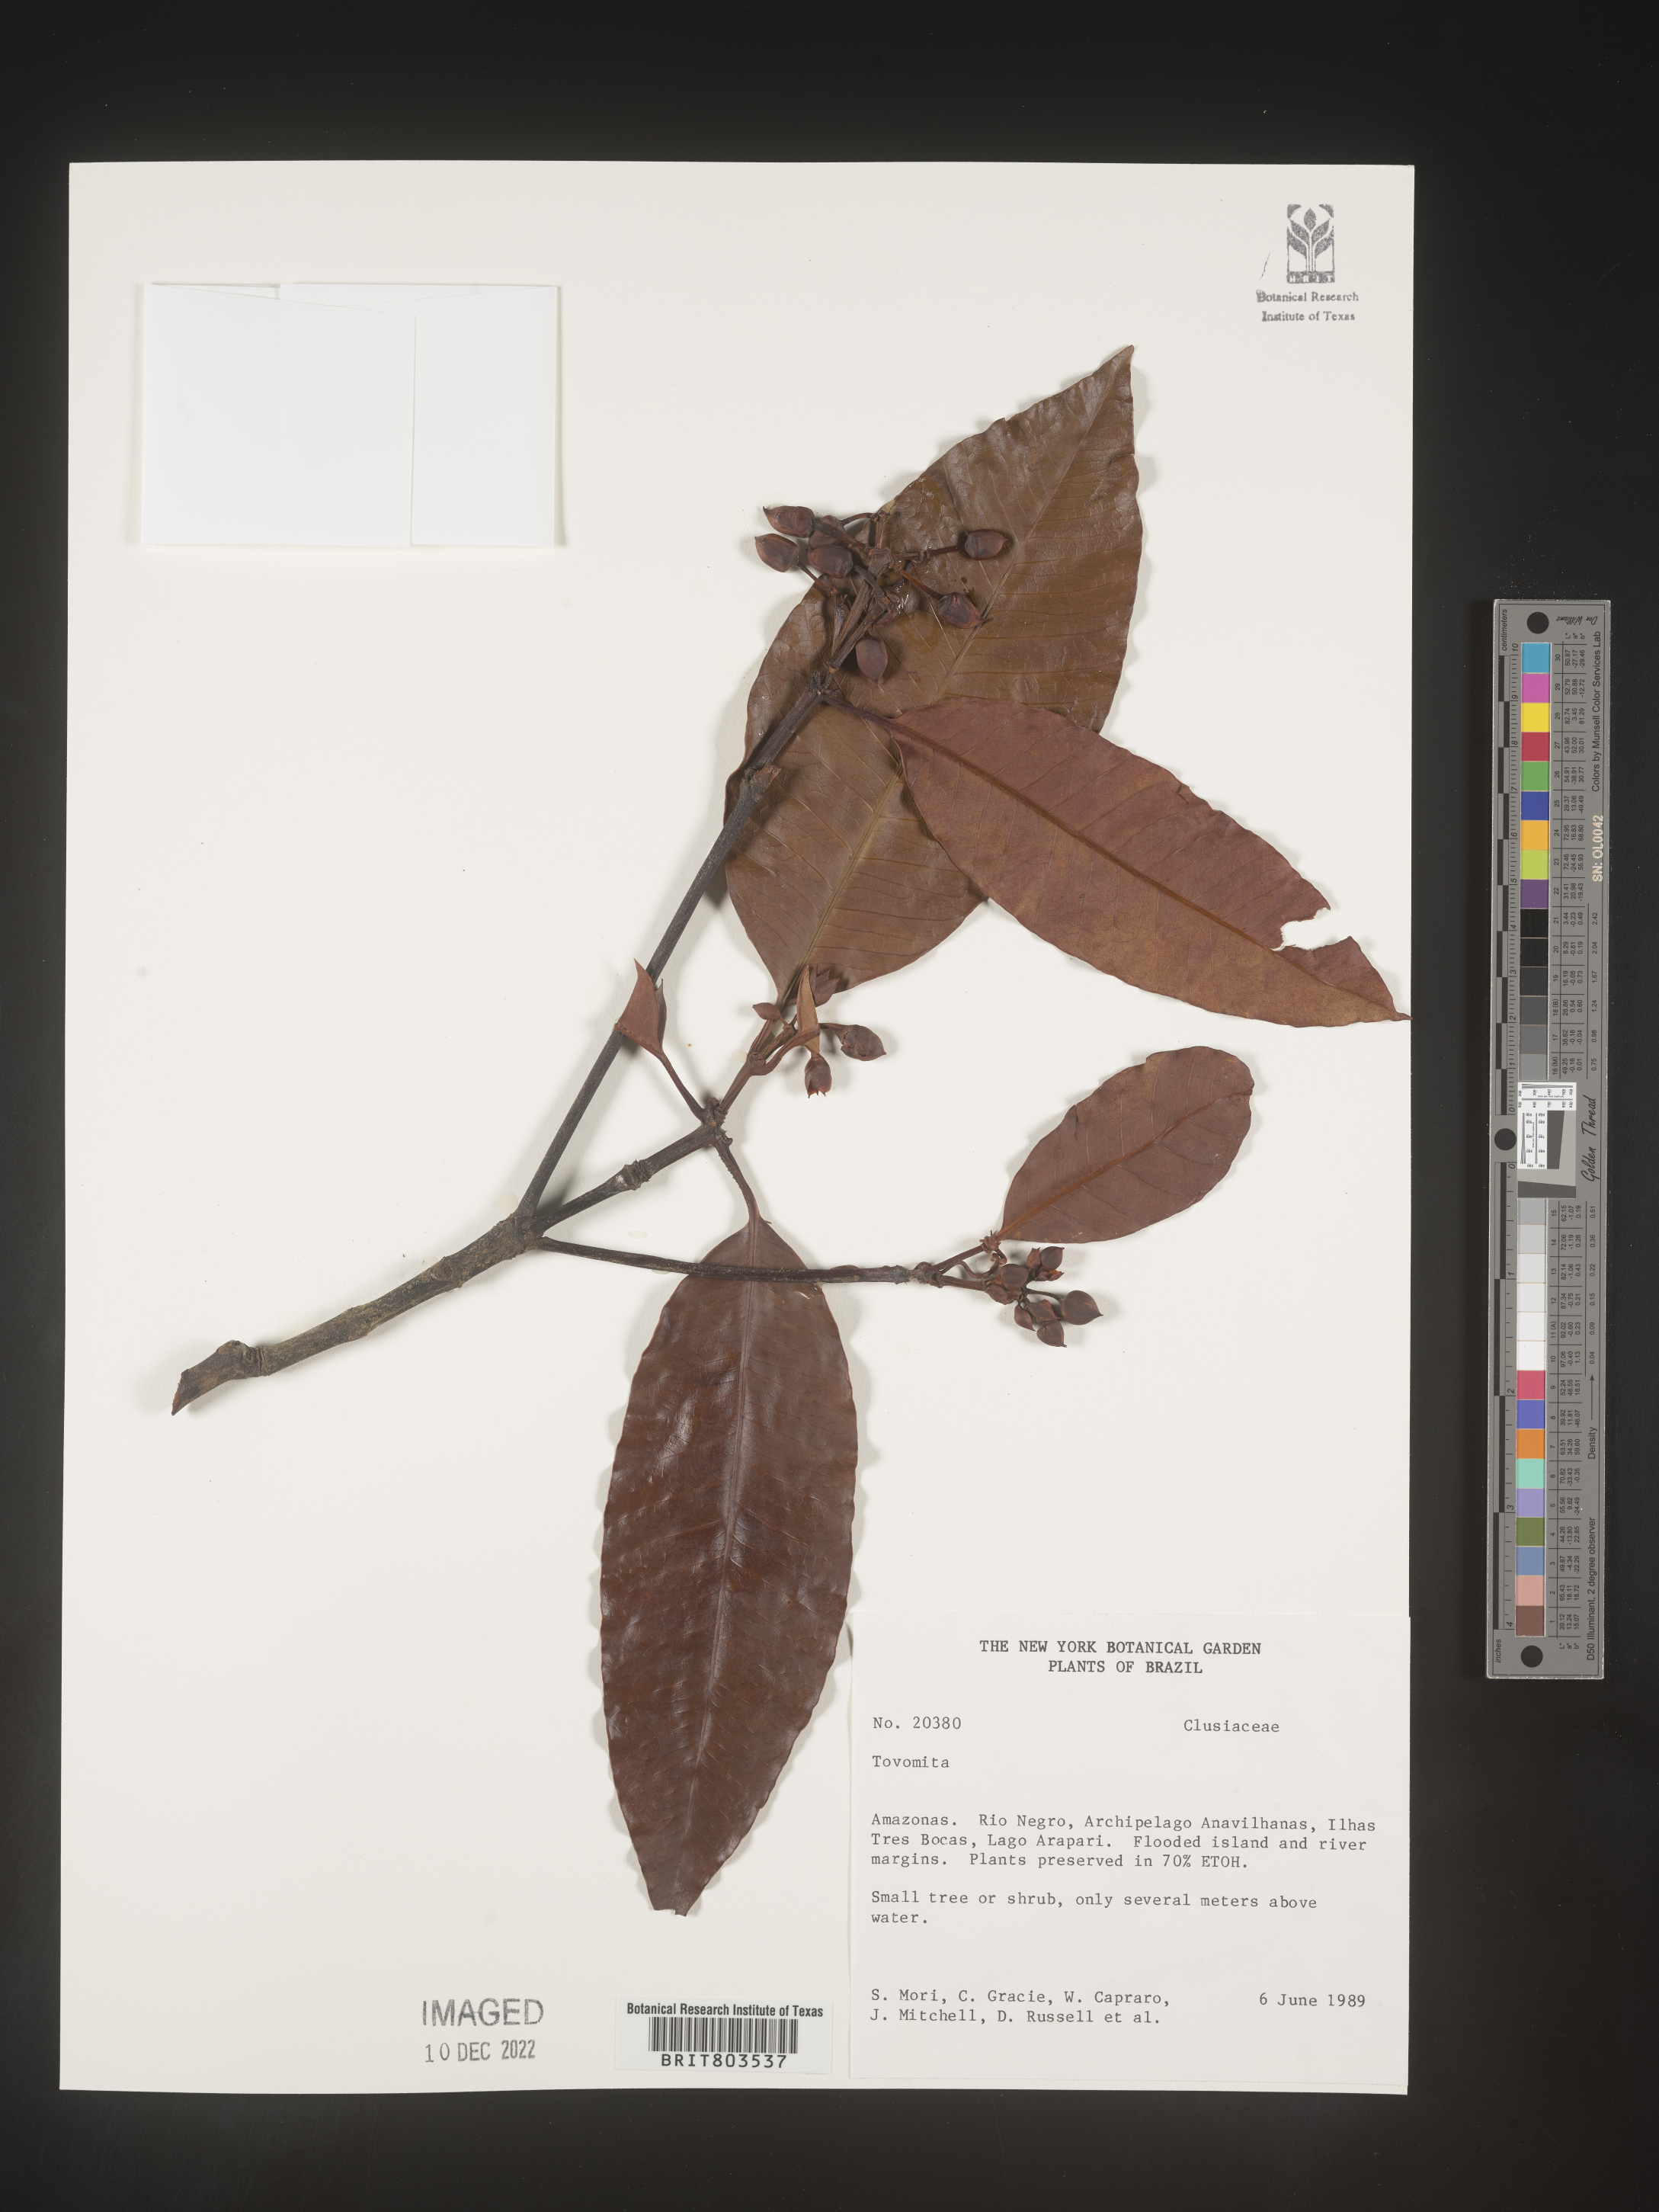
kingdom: Plantae
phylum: Tracheophyta
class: Magnoliopsida
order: Malpighiales
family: Clusiaceae
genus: Tovomita
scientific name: Tovomita
